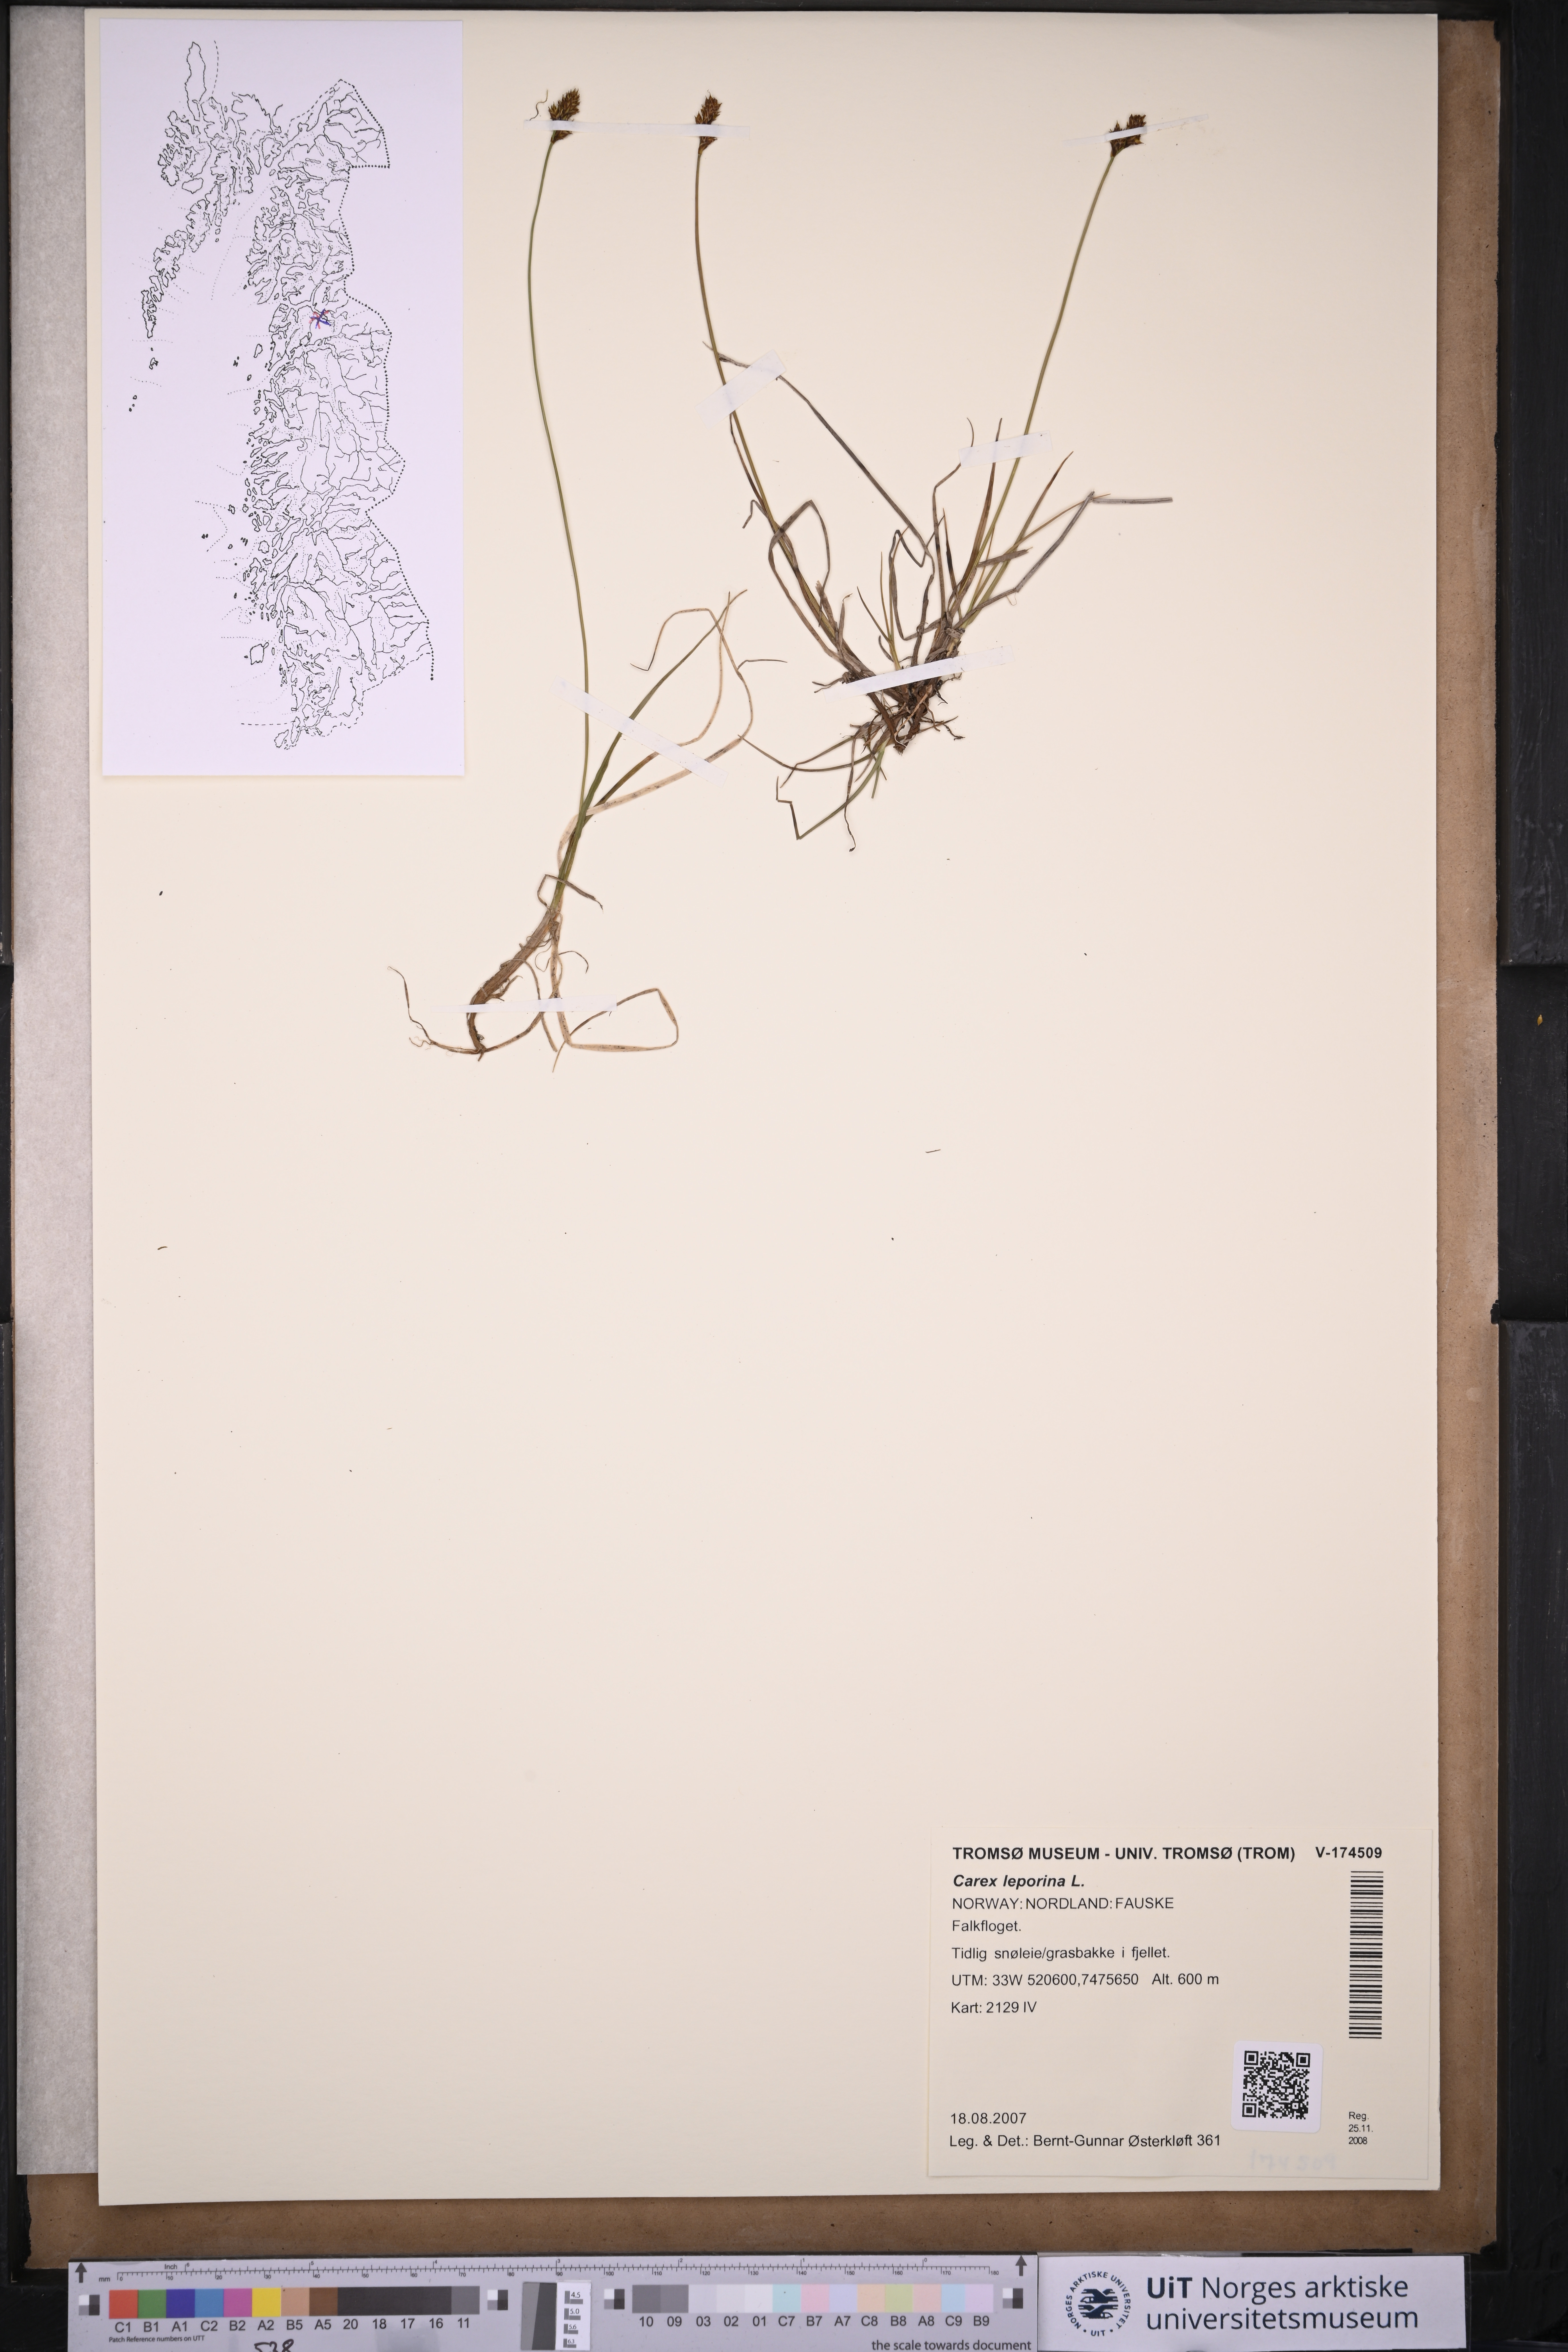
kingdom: Plantae
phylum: Tracheophyta
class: Liliopsida
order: Poales
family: Cyperaceae
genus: Carex
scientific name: Carex leporina
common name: Oval sedge
